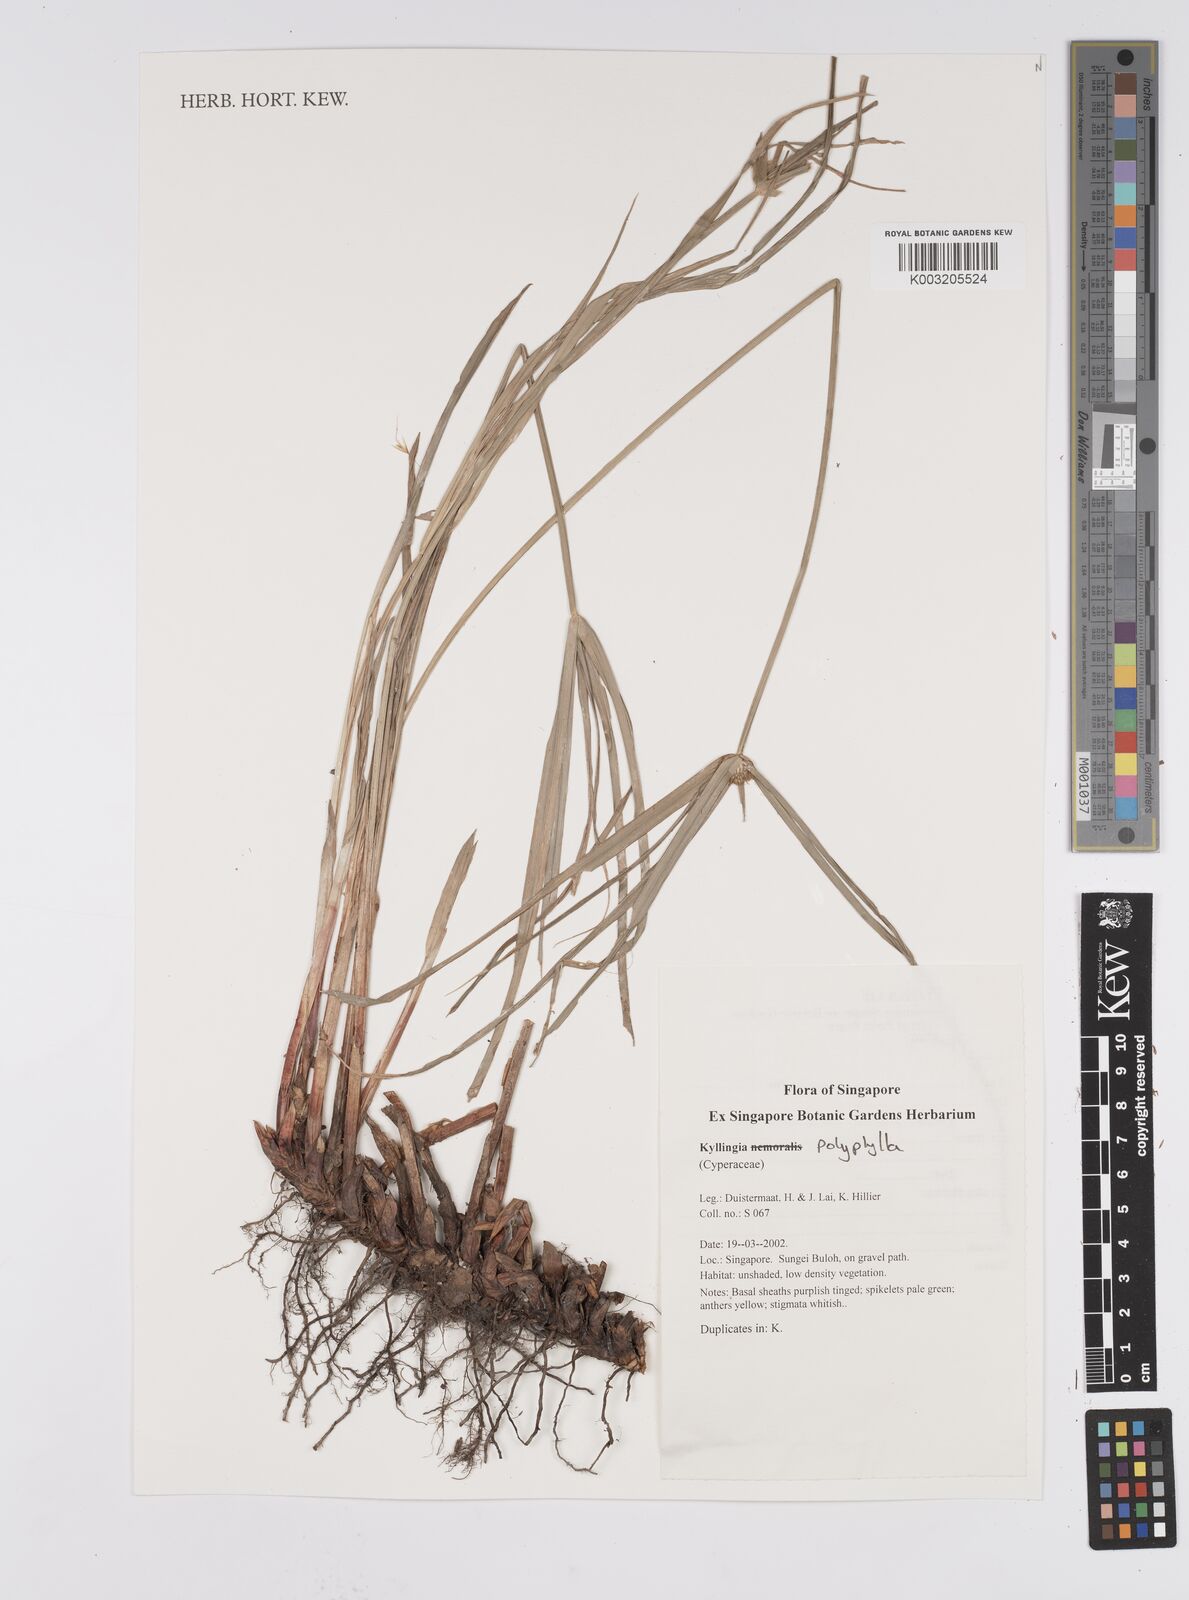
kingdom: Plantae
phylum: Tracheophyta
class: Liliopsida
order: Poales
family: Cyperaceae
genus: Cyperus
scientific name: Cyperus
